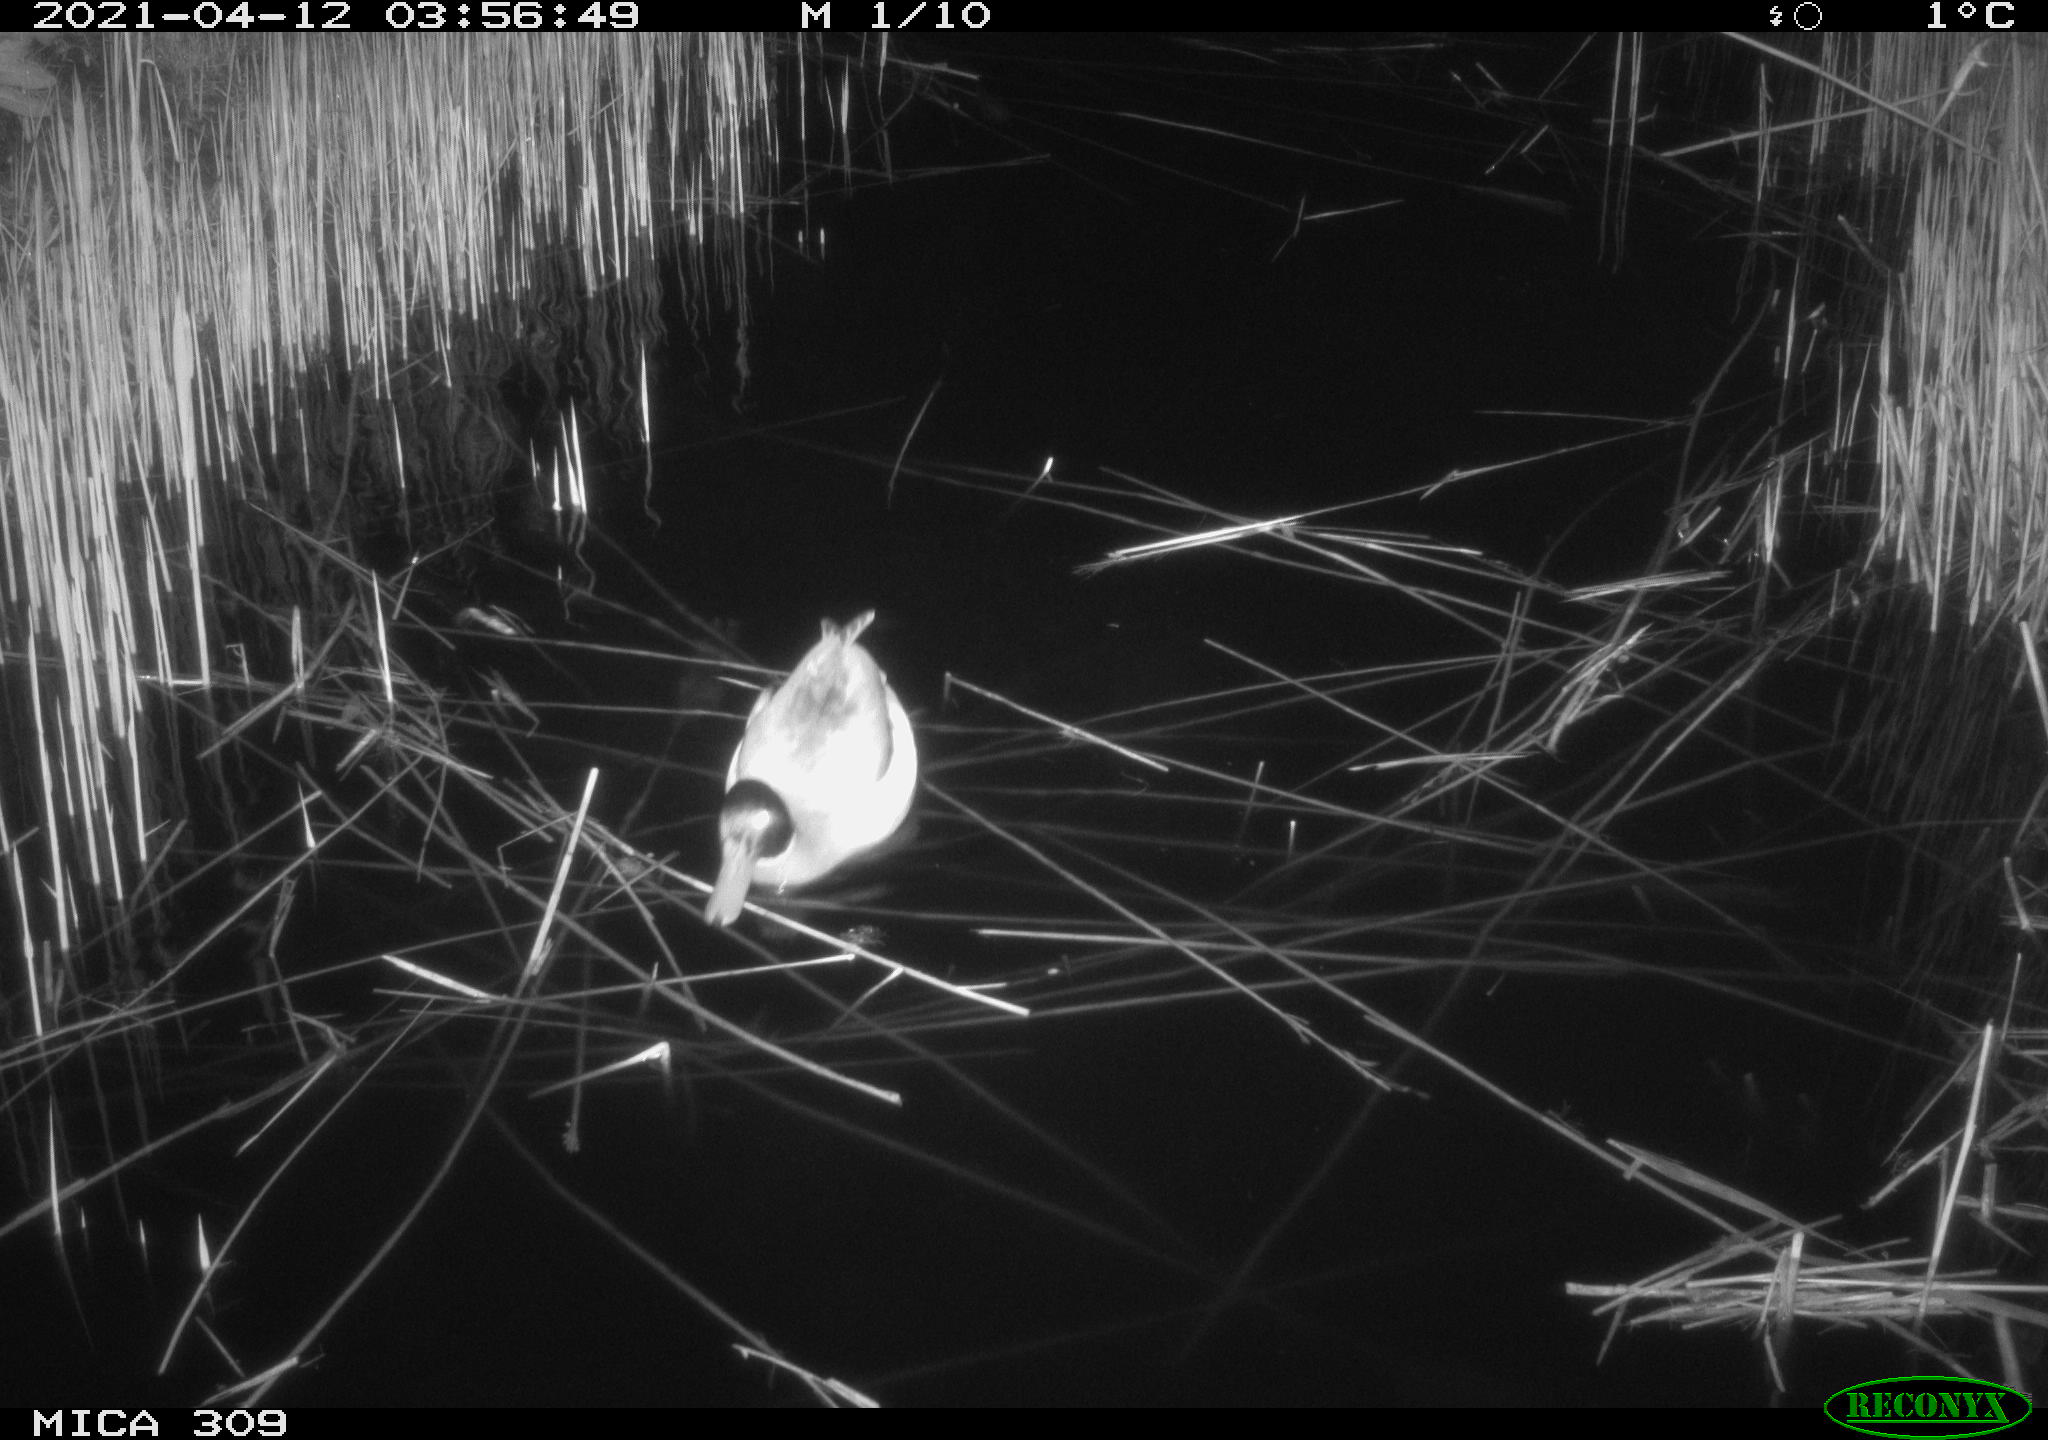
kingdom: Animalia
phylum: Chordata
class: Aves
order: Gruiformes
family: Rallidae
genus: Gallinula
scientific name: Gallinula chloropus
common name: Common moorhen
